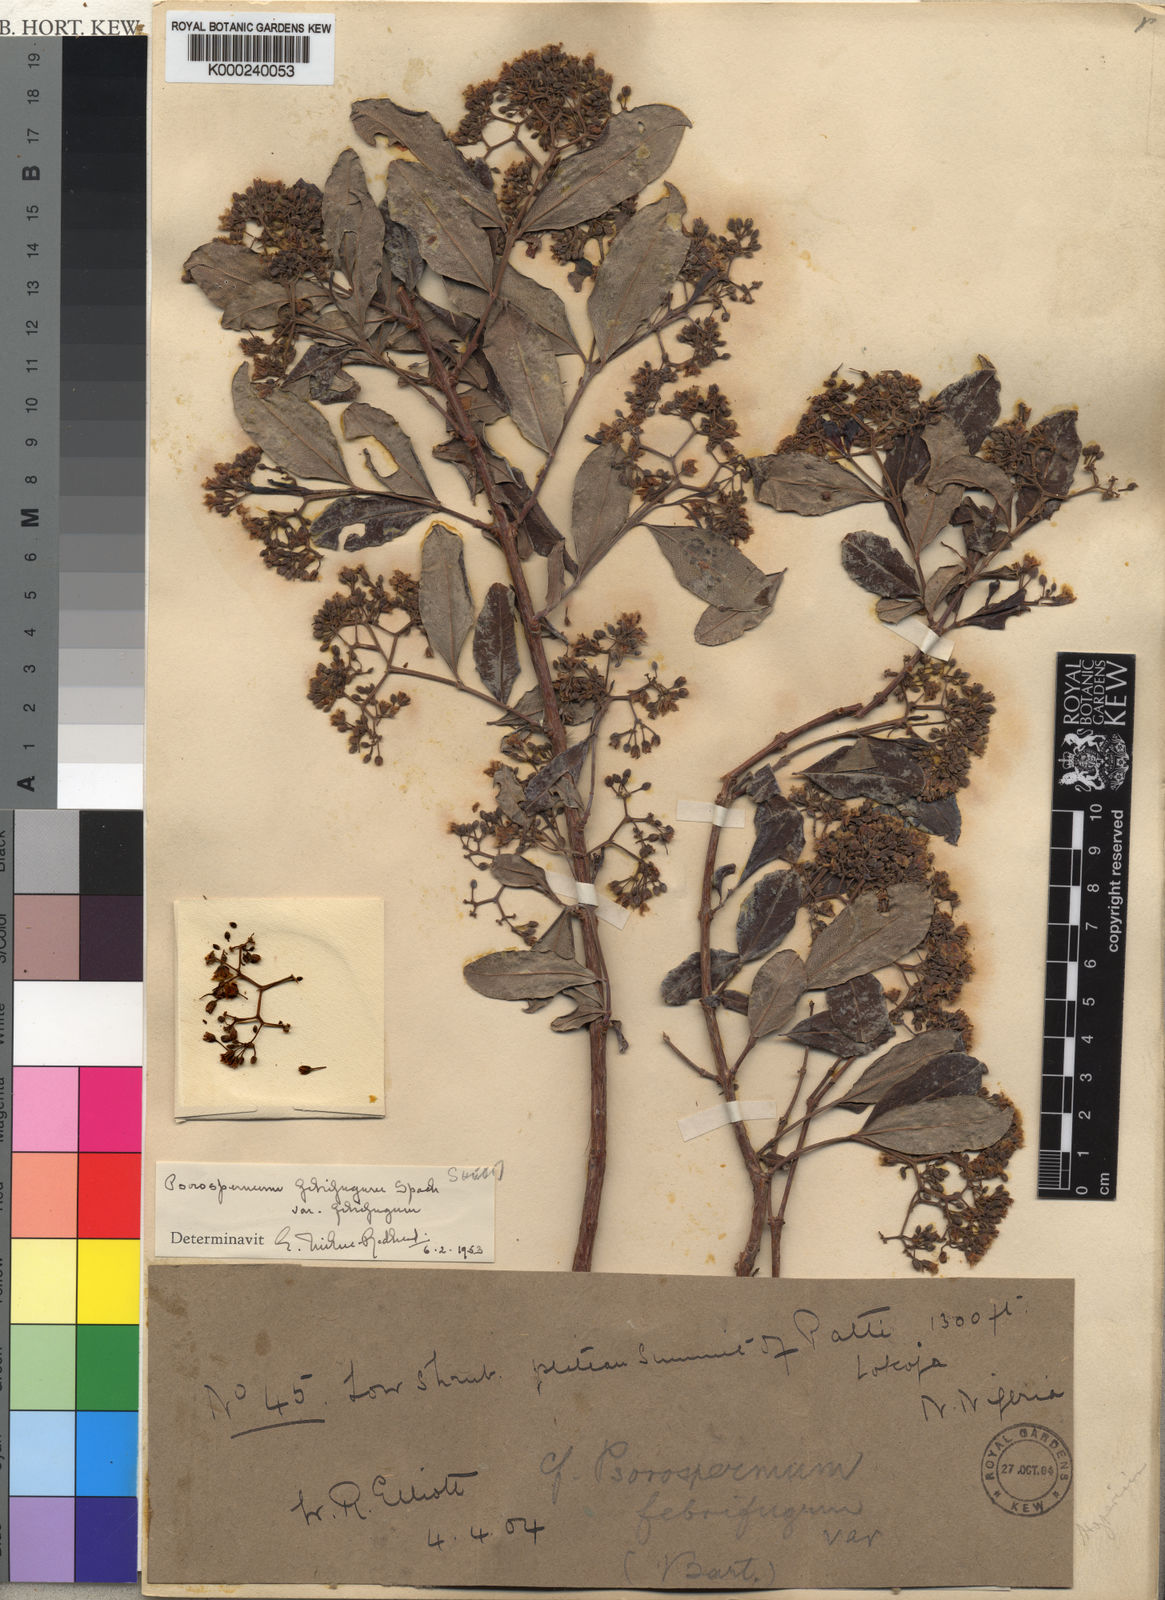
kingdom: Plantae
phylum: Tracheophyta
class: Magnoliopsida
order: Malpighiales
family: Hypericaceae
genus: Psorospermum
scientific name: Psorospermum febrifugum
